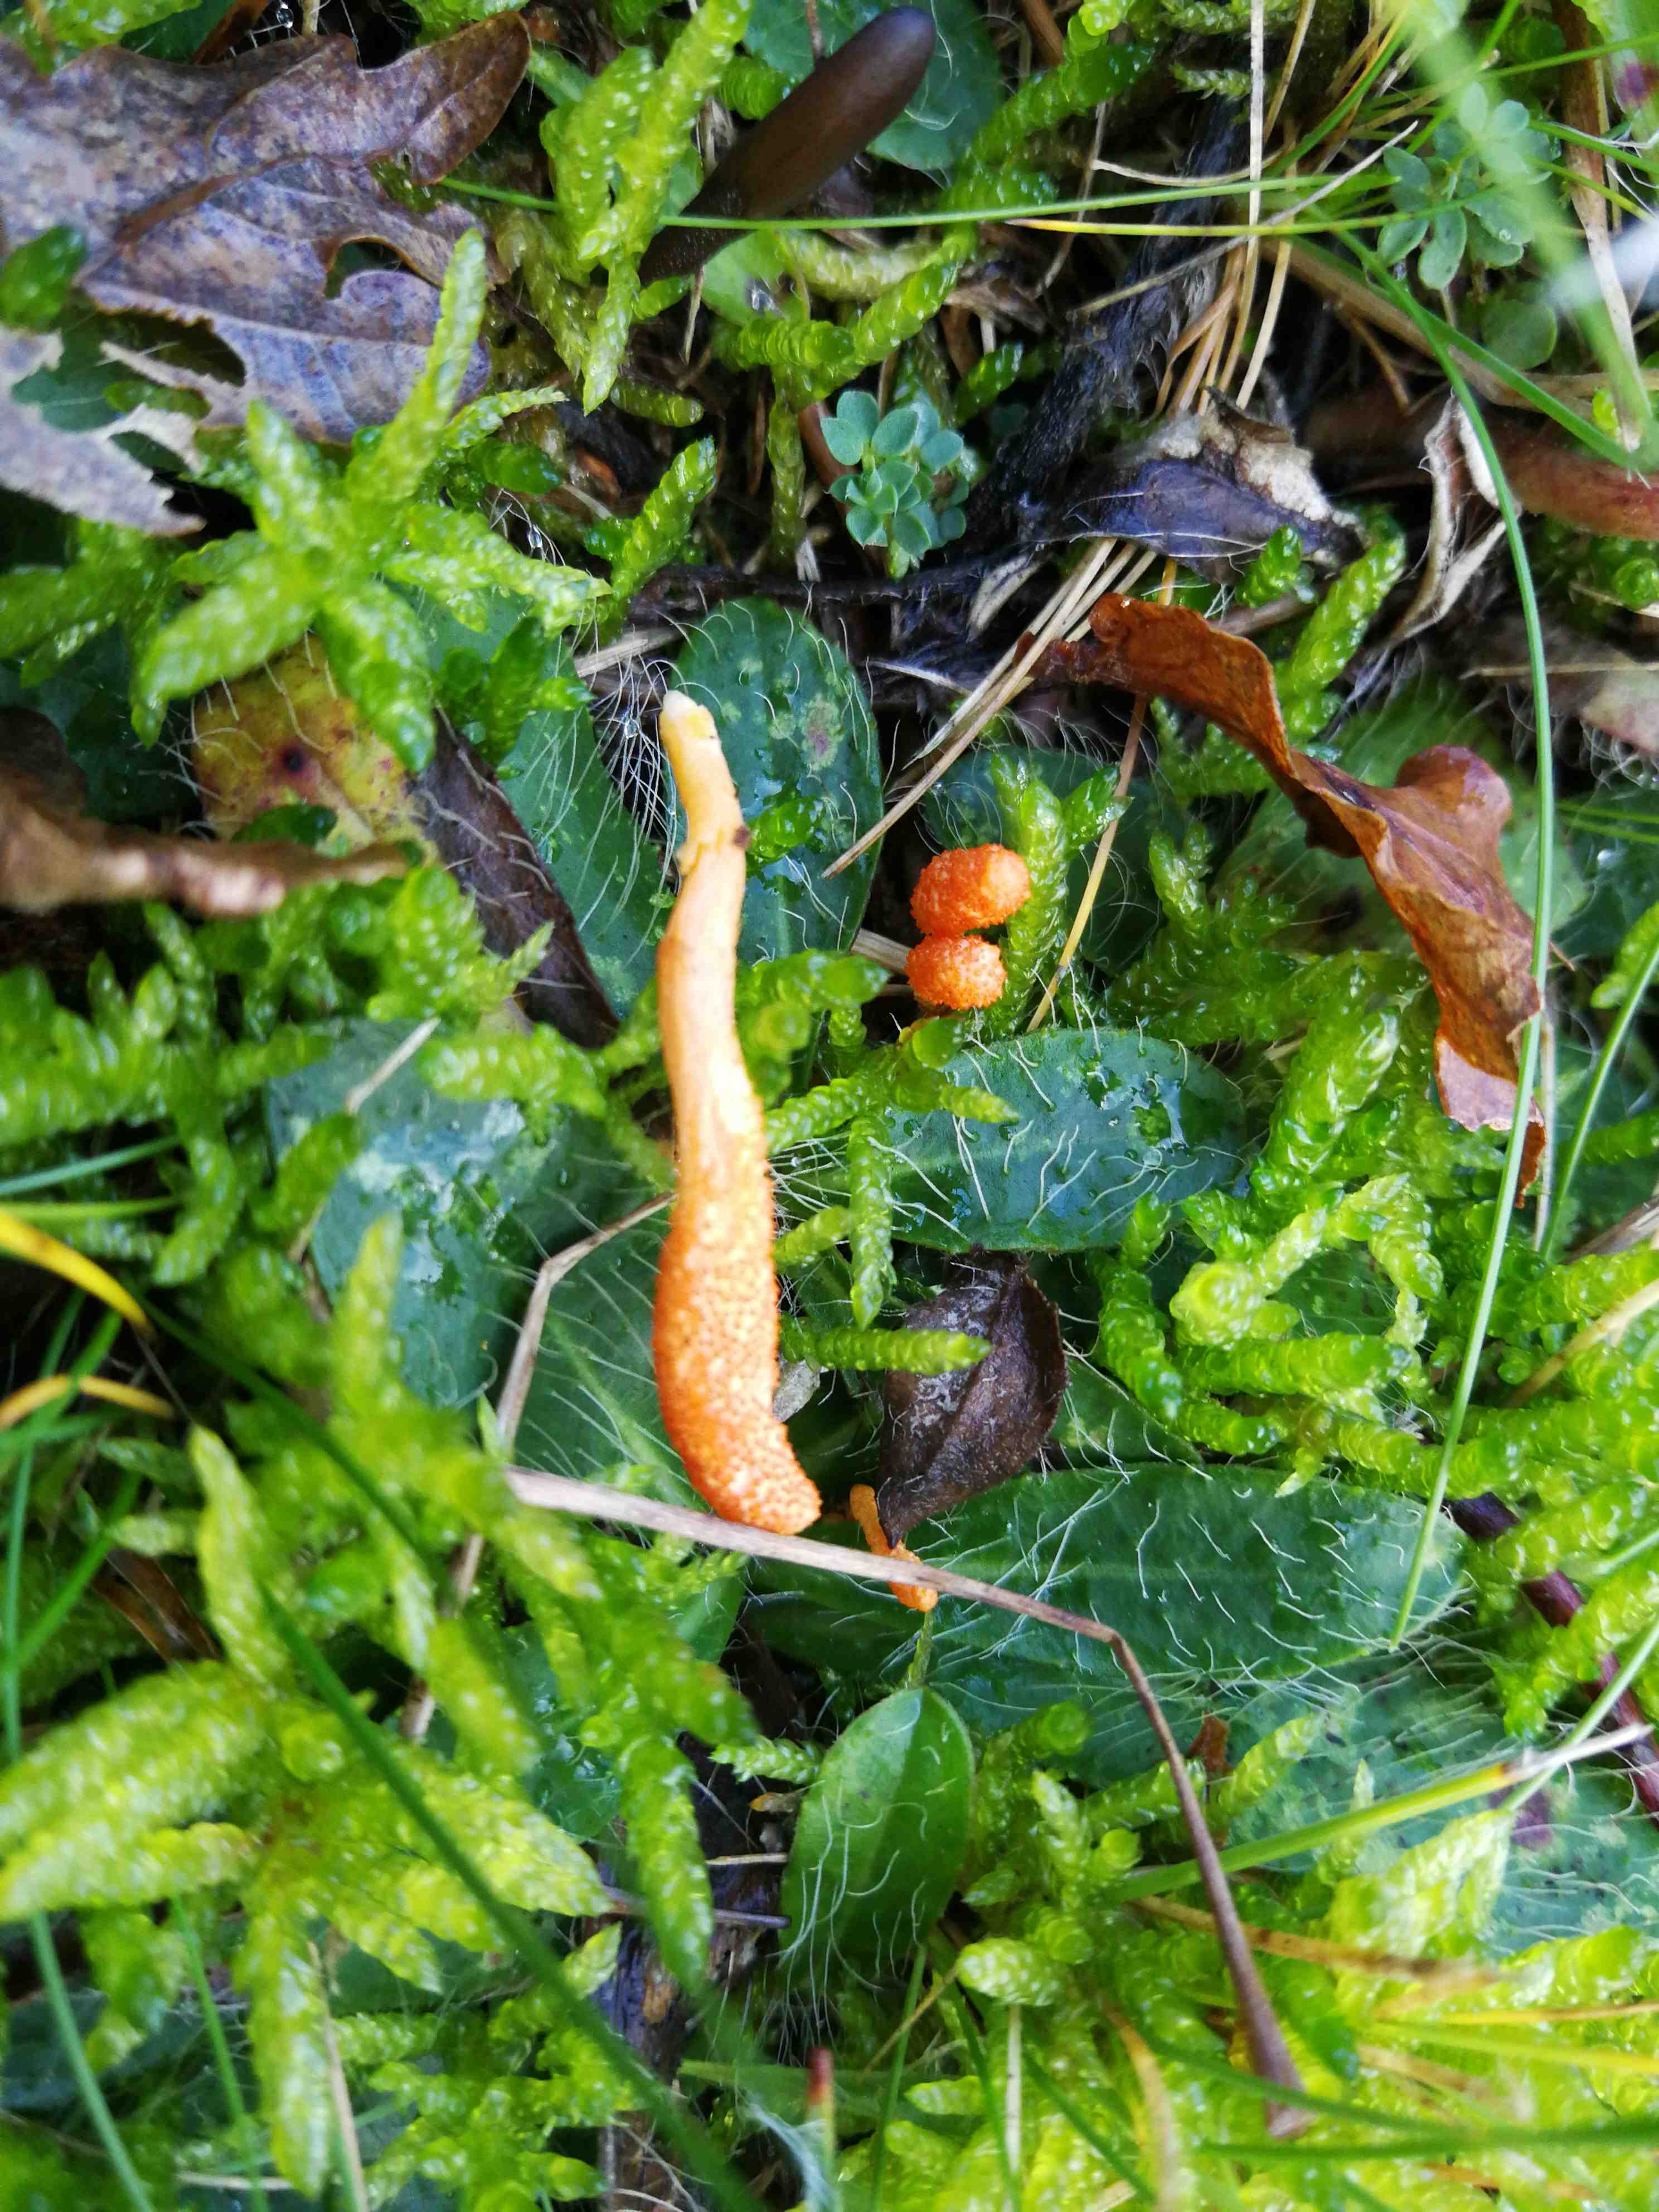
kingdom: Fungi
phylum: Ascomycota
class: Sordariomycetes
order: Hypocreales
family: Cordycipitaceae
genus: Cordyceps
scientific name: Cordyceps militaris
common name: puppe-snyltekølle
